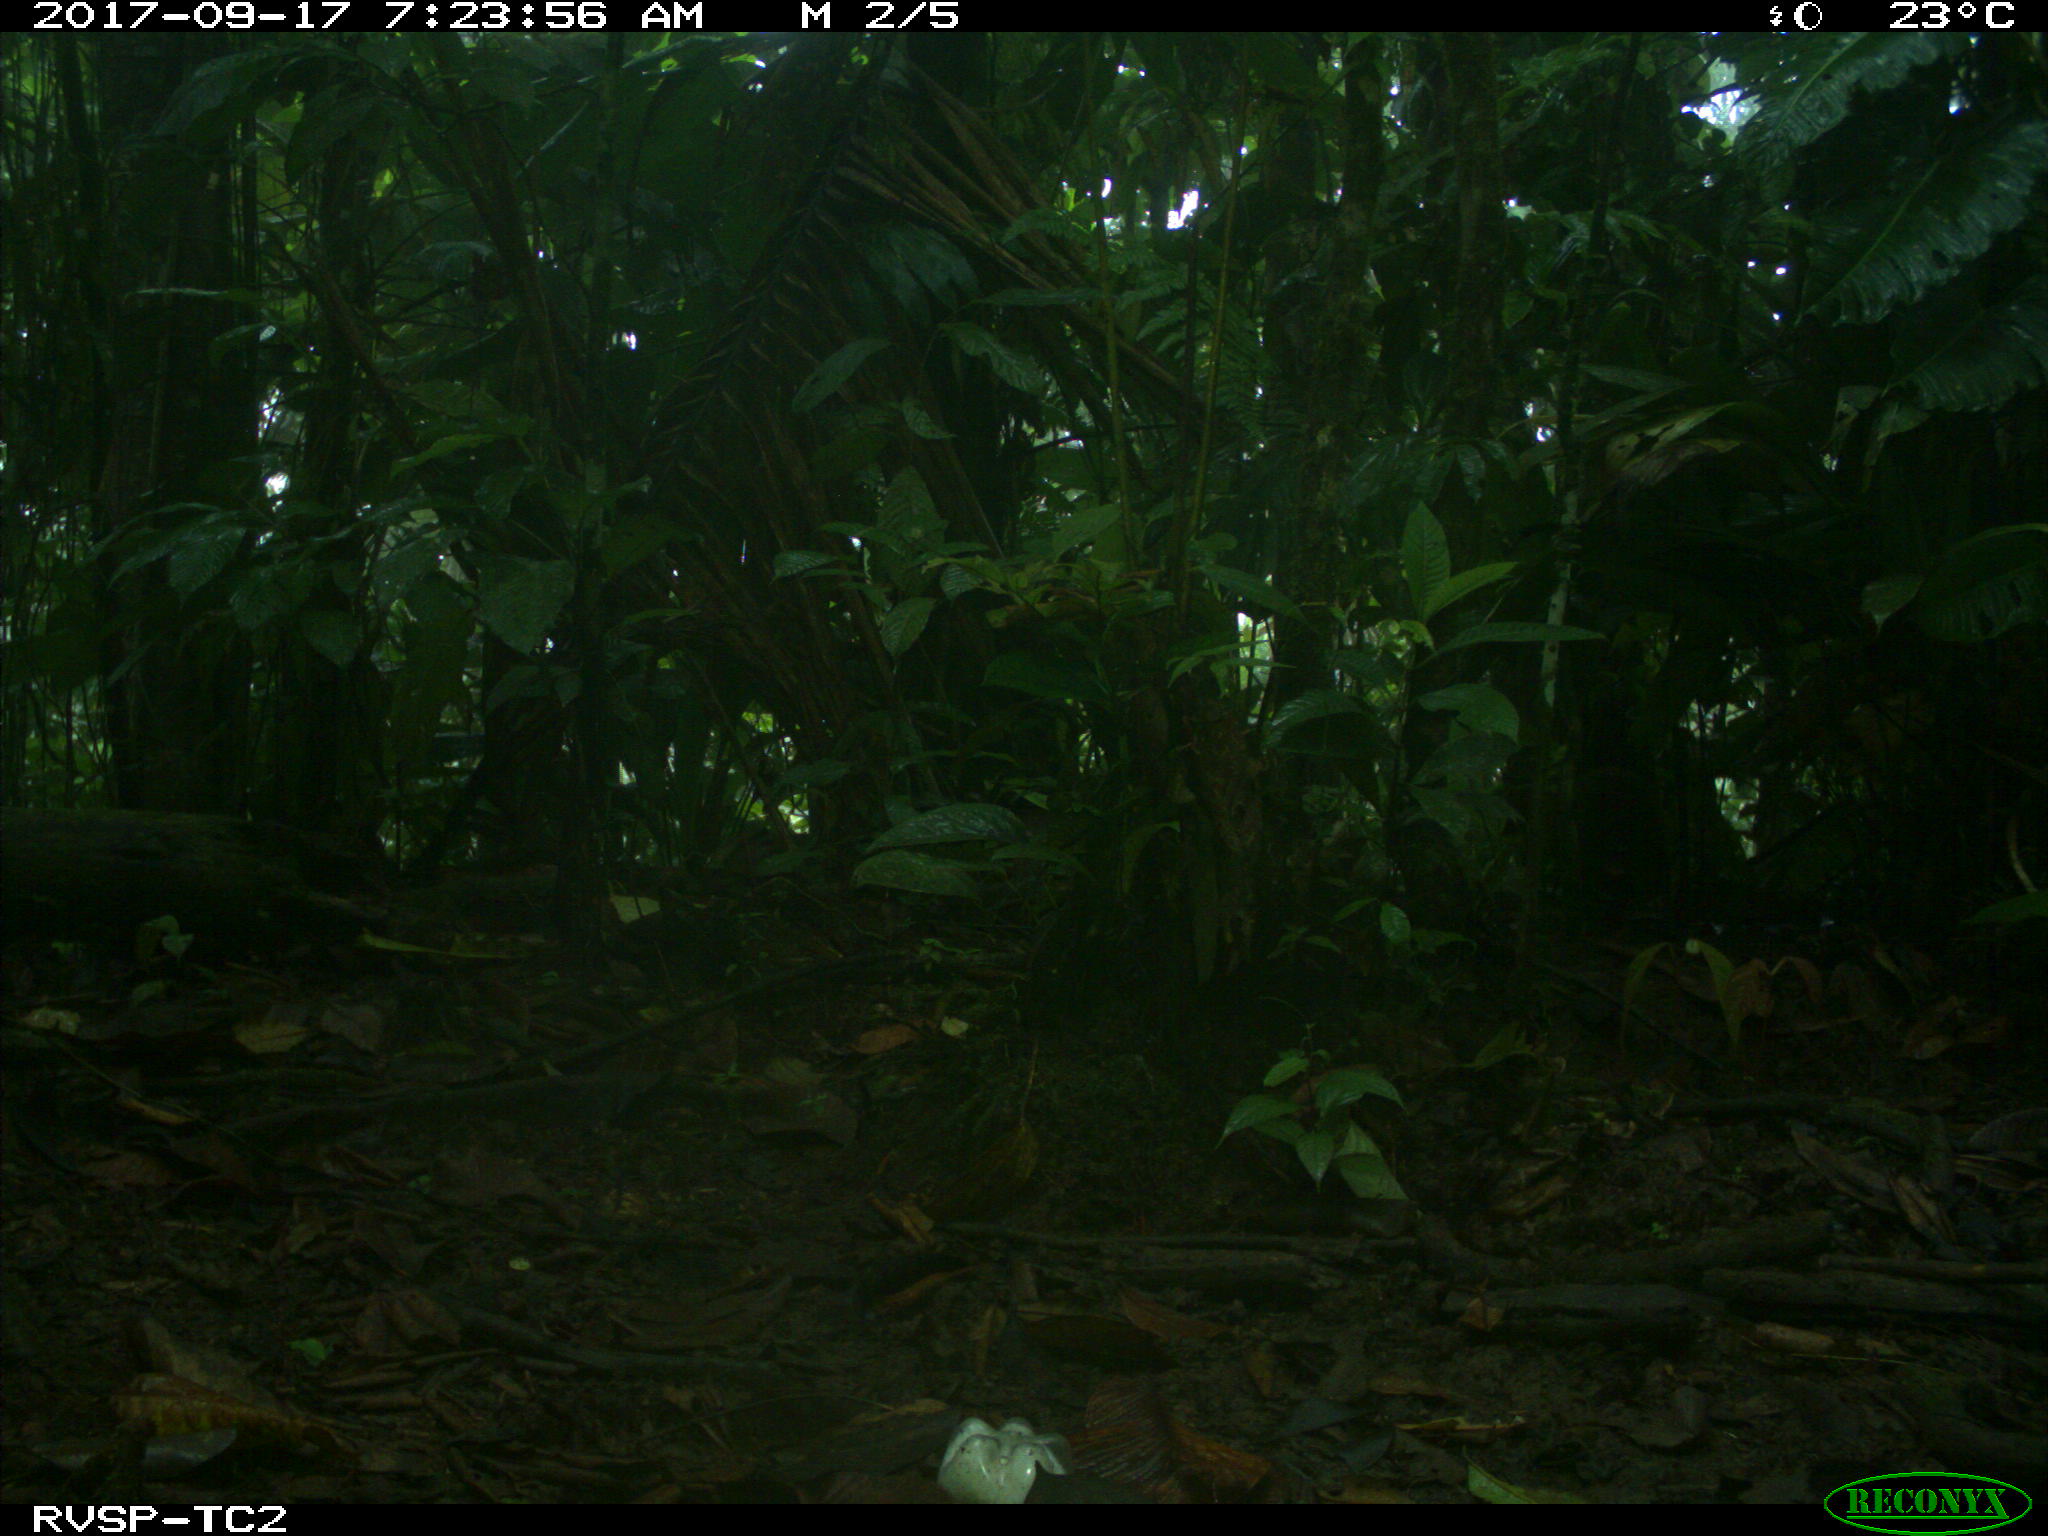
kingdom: Animalia
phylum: Chordata
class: Mammalia
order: Rodentia
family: Dasyproctidae
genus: Dasyprocta
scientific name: Dasyprocta punctata
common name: Central american agouti
